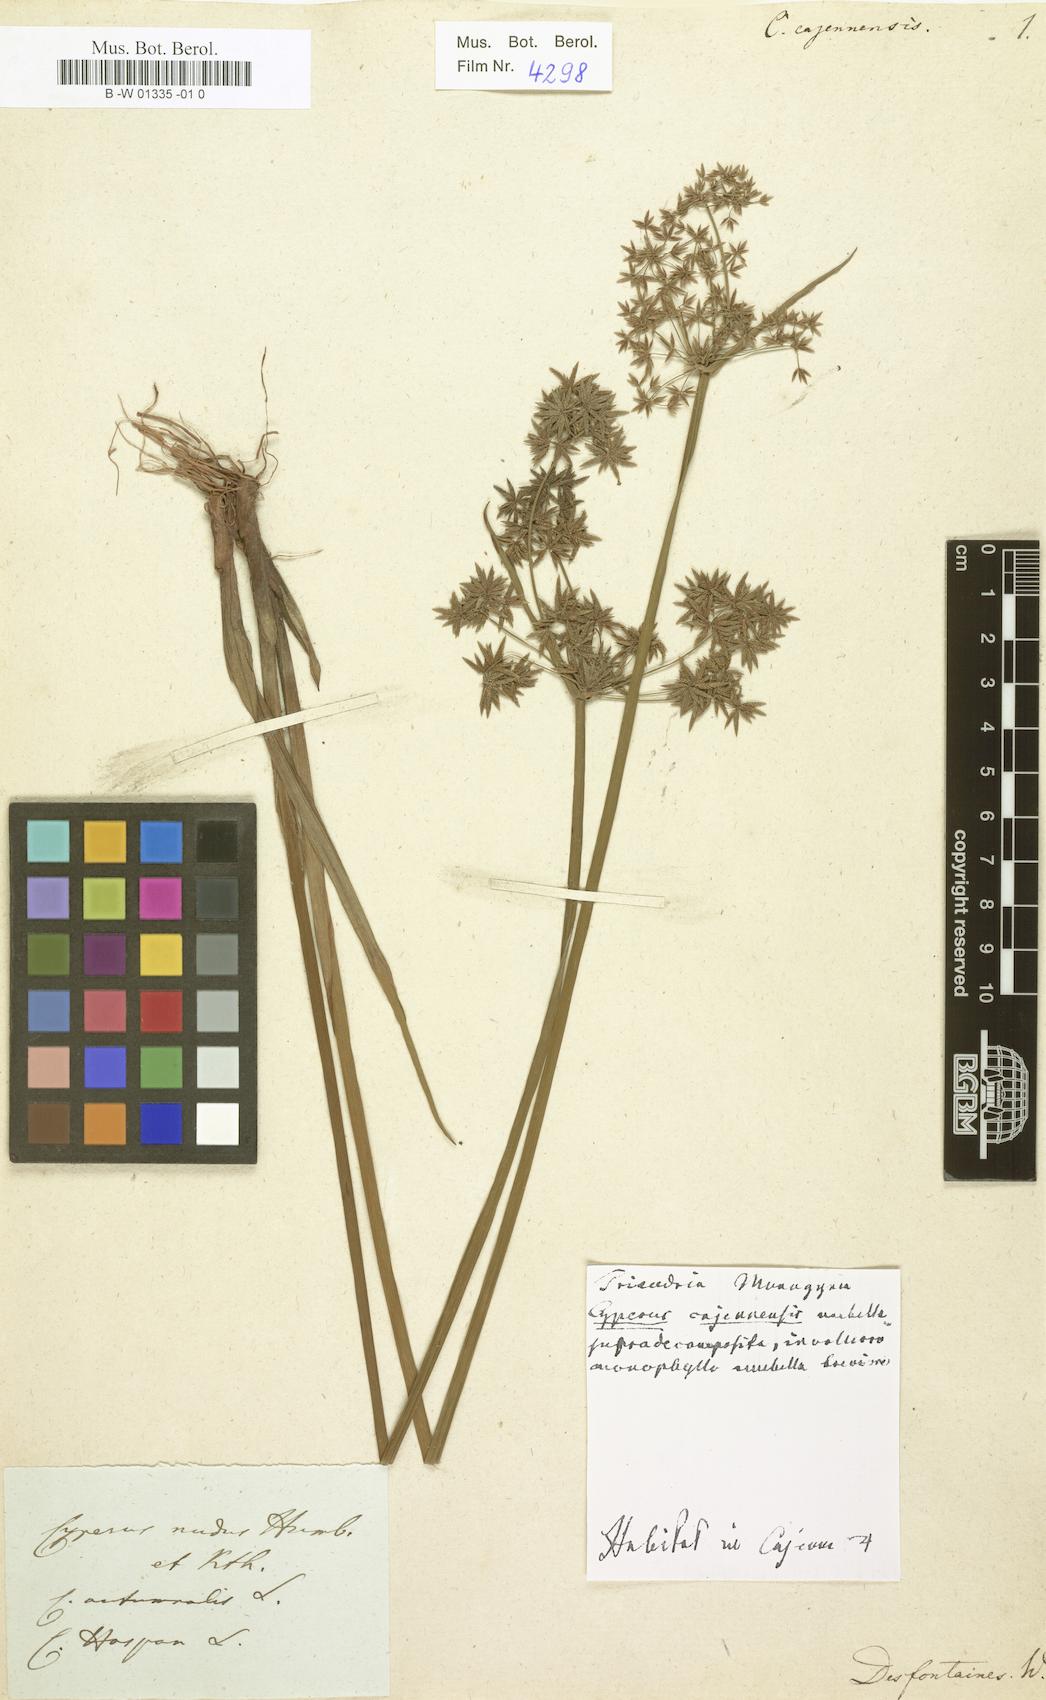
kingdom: Plantae
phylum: Tracheophyta
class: Liliopsida
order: Poales
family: Cyperaceae
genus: Cyperus
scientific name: Cyperus
